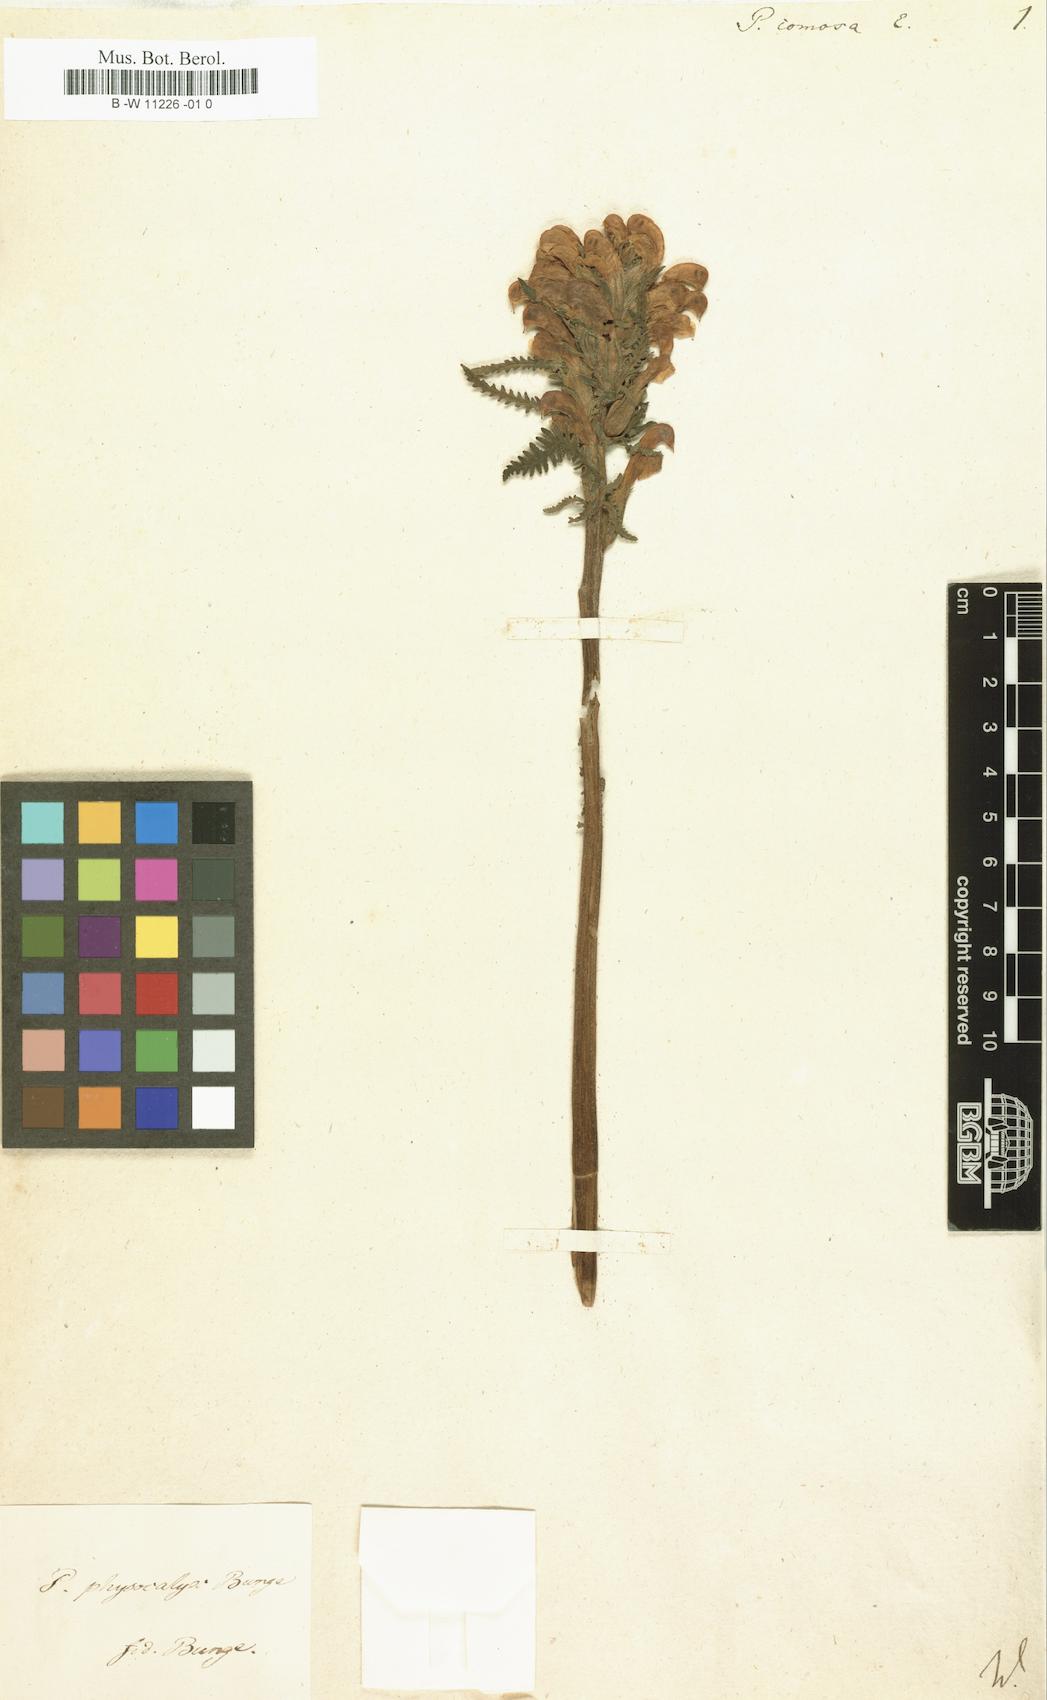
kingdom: Plantae
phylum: Tracheophyta
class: Magnoliopsida
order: Lamiales
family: Orobanchaceae
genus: Pedicularis
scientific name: Pedicularis comosa
